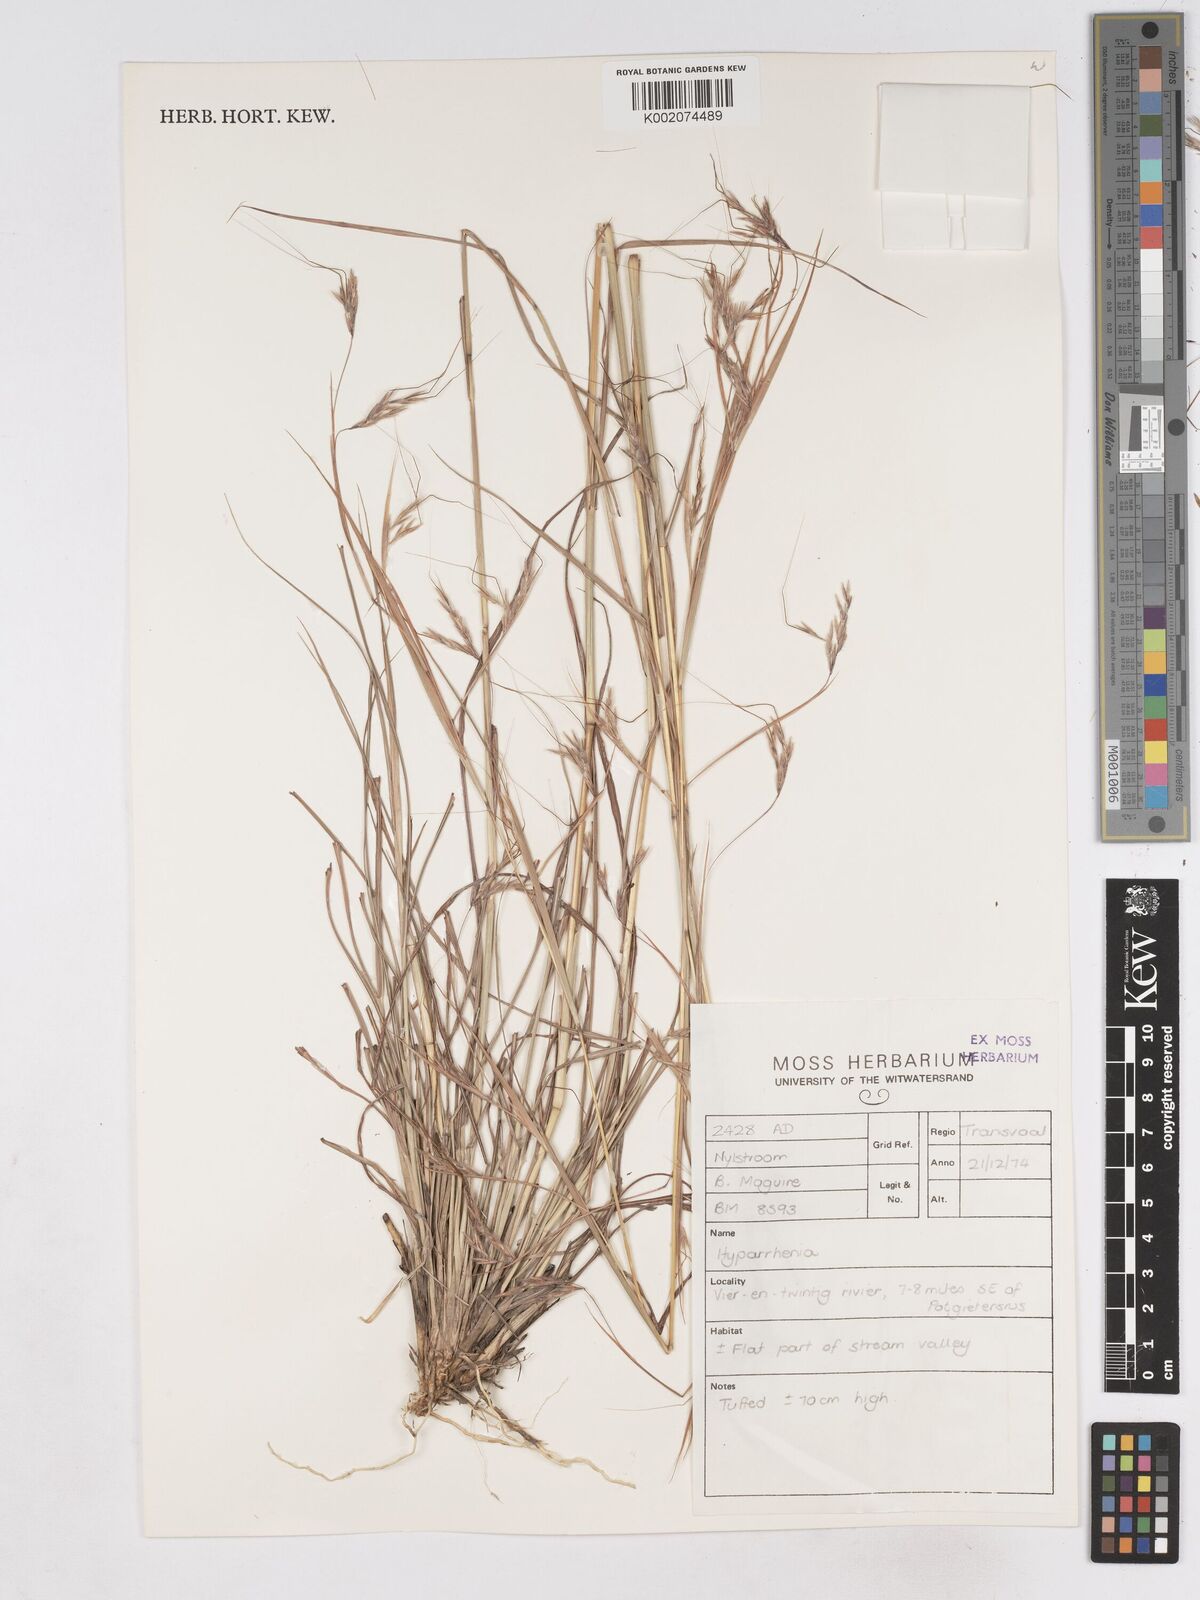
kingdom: Plantae
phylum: Tracheophyta
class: Liliopsida
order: Poales
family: Poaceae
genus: Hyparrhenia
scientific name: Hyparrhenia hirta
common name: Thatching grass
